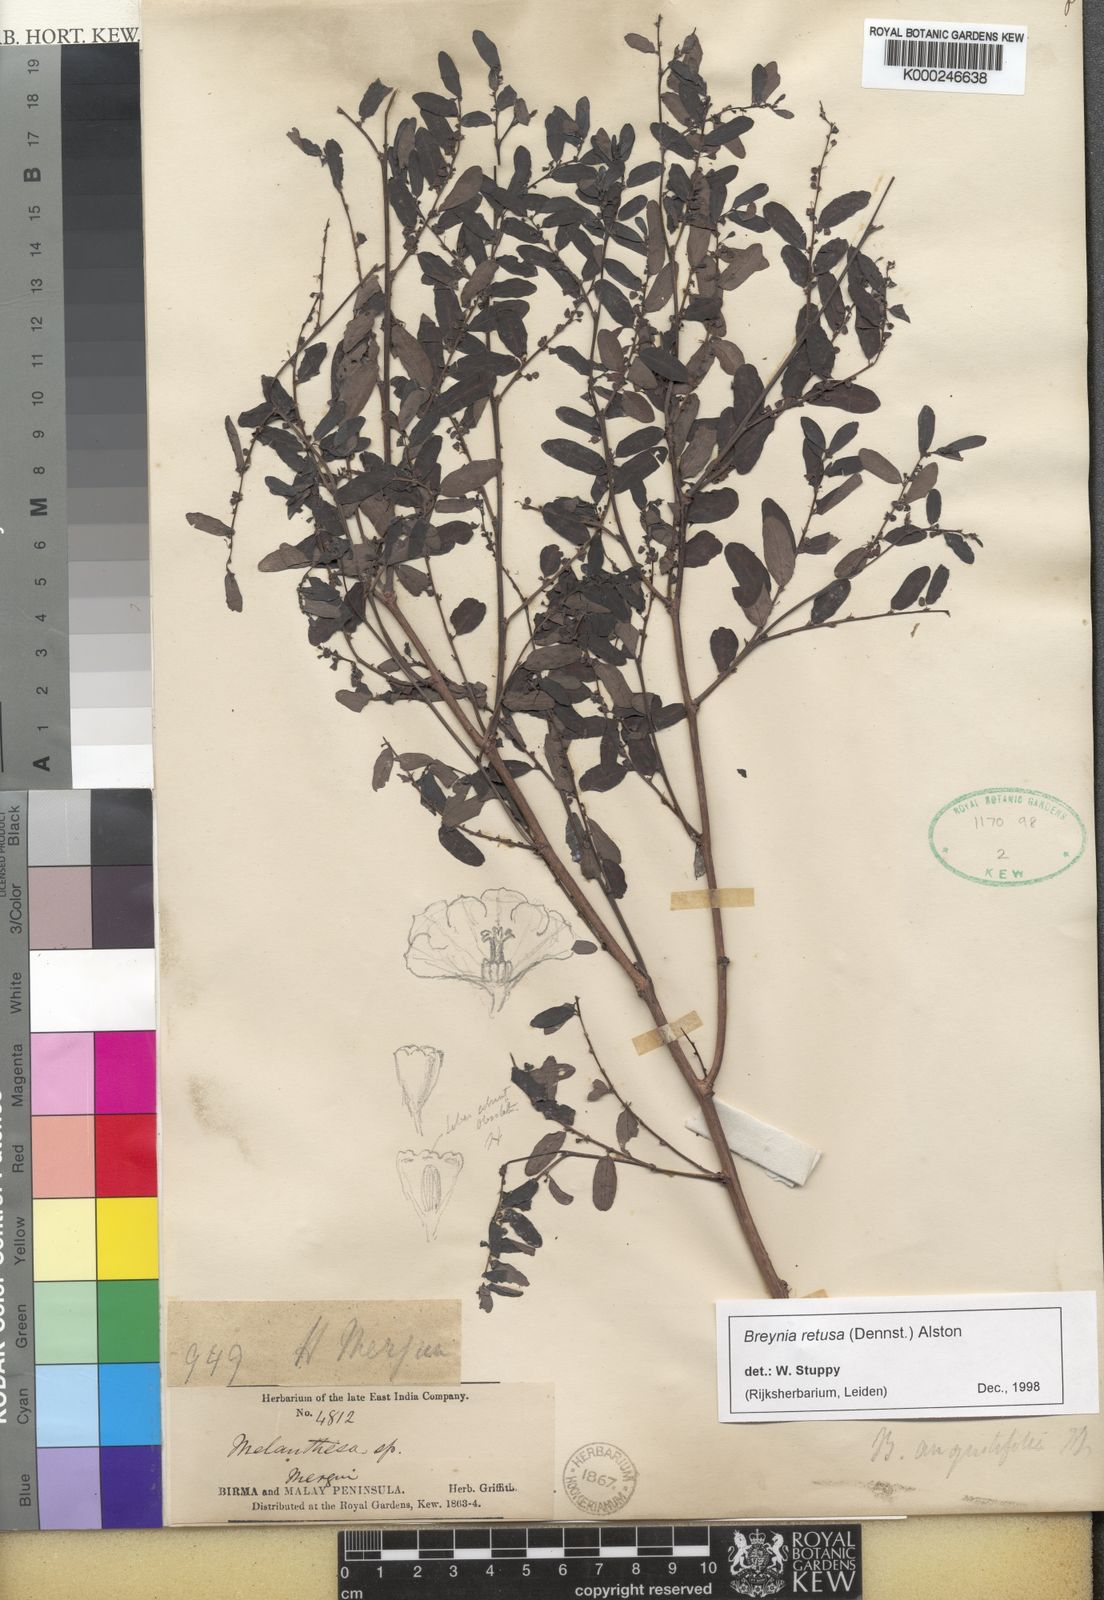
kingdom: Plantae
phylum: Tracheophyta
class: Magnoliopsida
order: Malpighiales
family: Phyllanthaceae
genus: Breynia
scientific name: Breynia retusa
